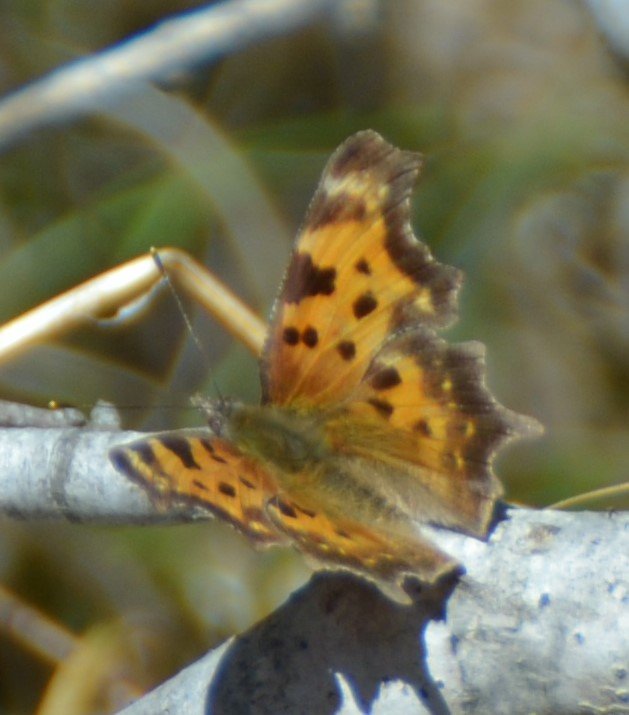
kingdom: Animalia
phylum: Arthropoda
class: Insecta
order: Lepidoptera
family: Nymphalidae
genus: Polygonia
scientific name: Polygonia faunus
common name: Green Comma
